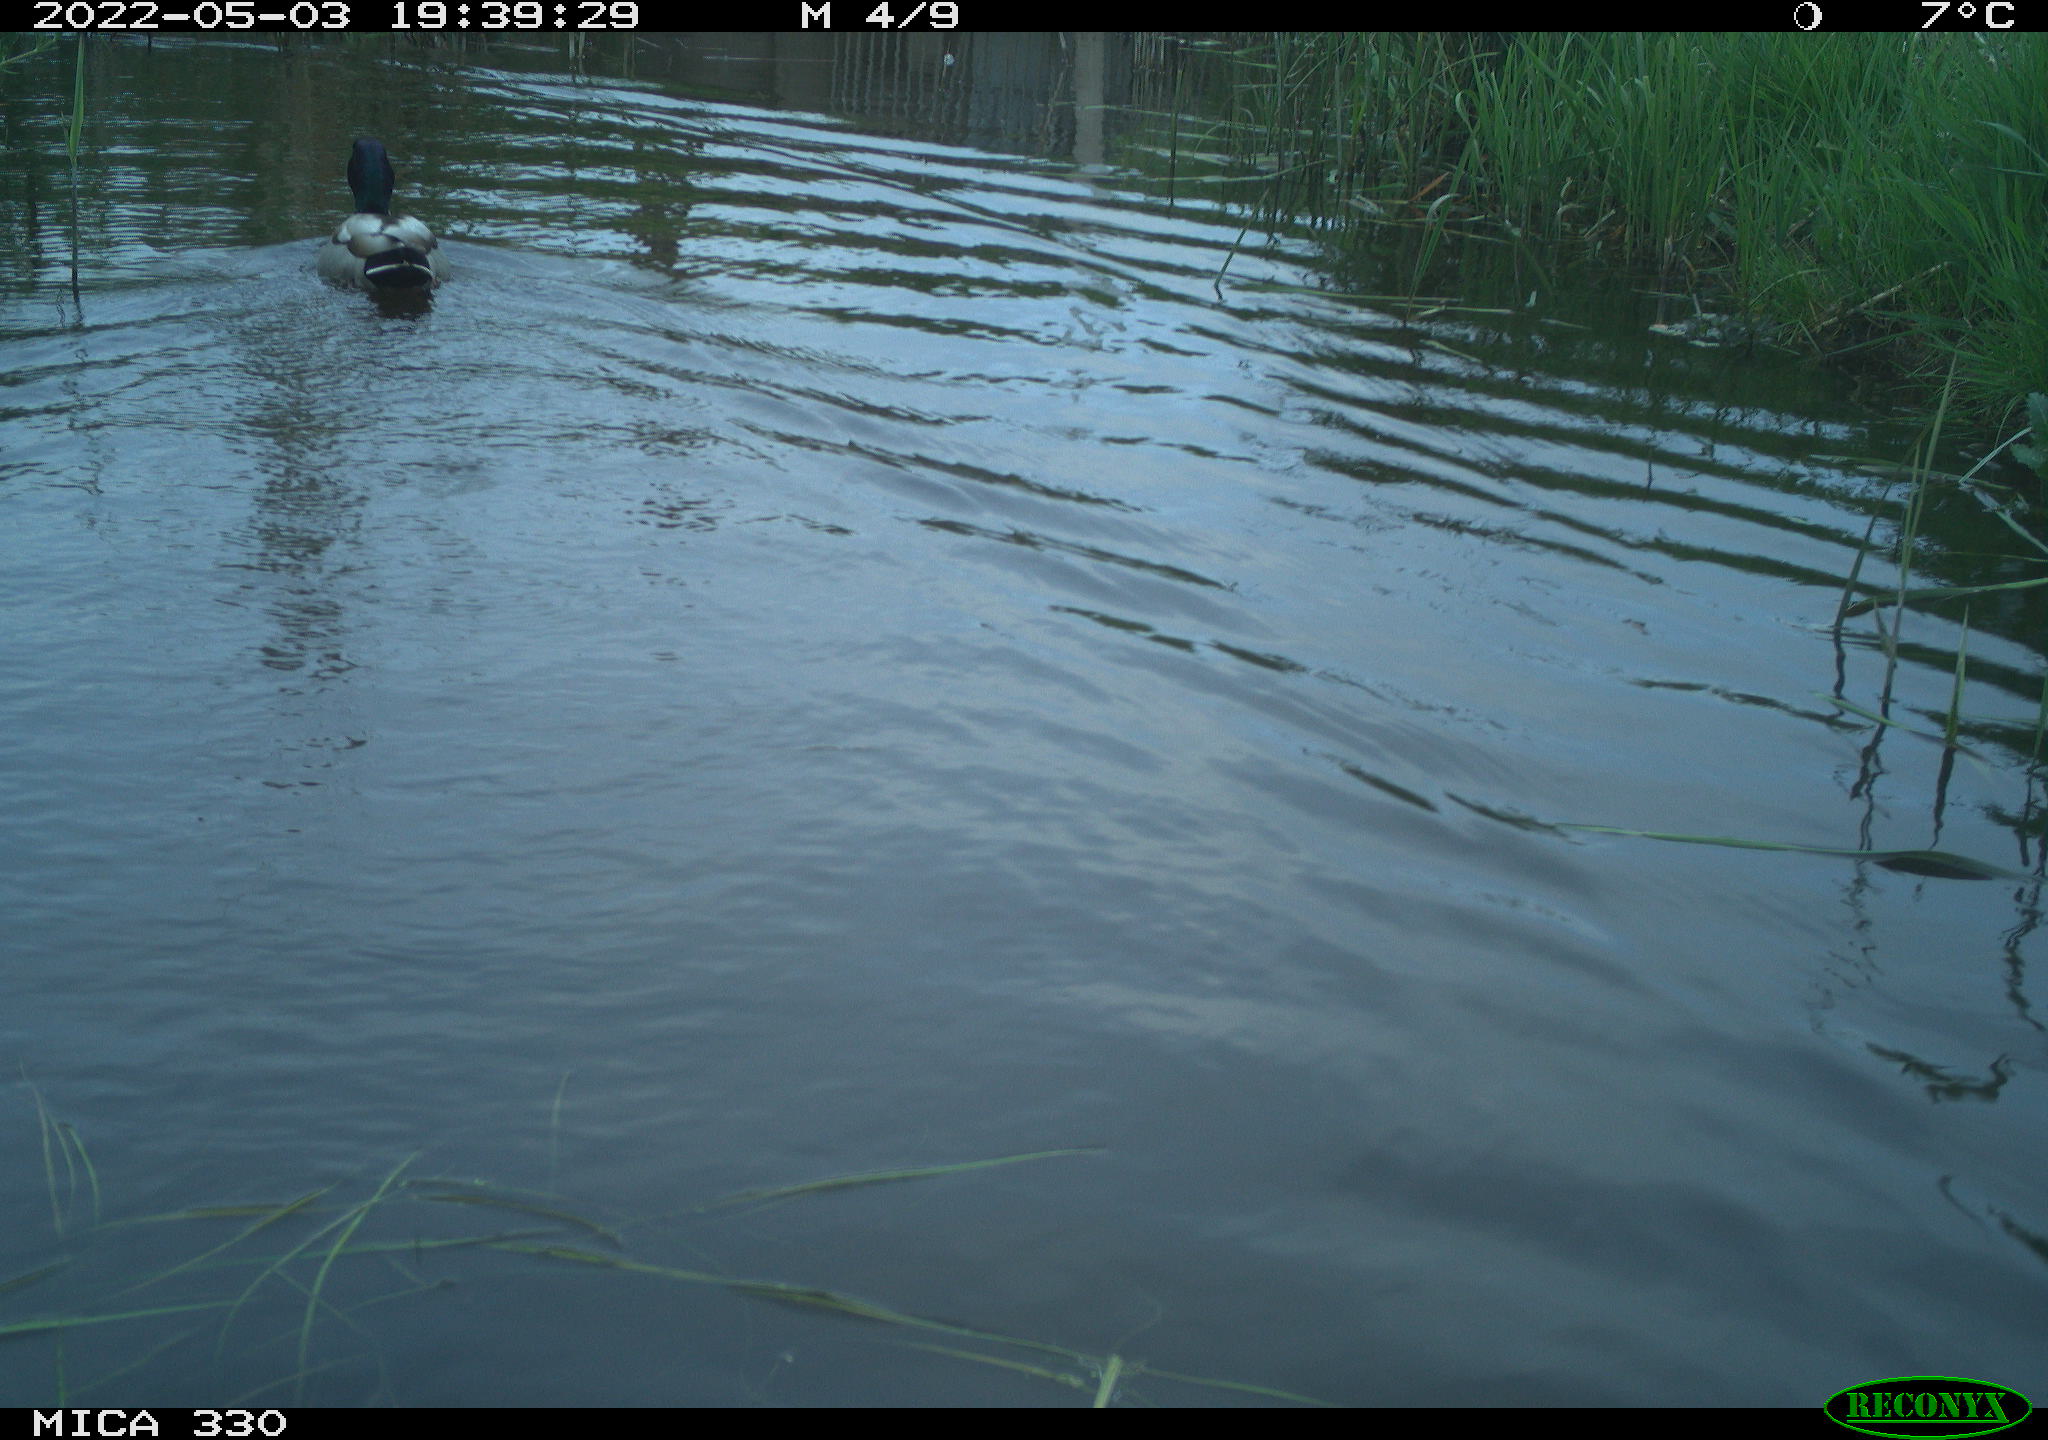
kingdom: Animalia
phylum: Chordata
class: Aves
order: Anseriformes
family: Anatidae
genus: Anas
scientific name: Anas platyrhynchos
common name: Mallard
